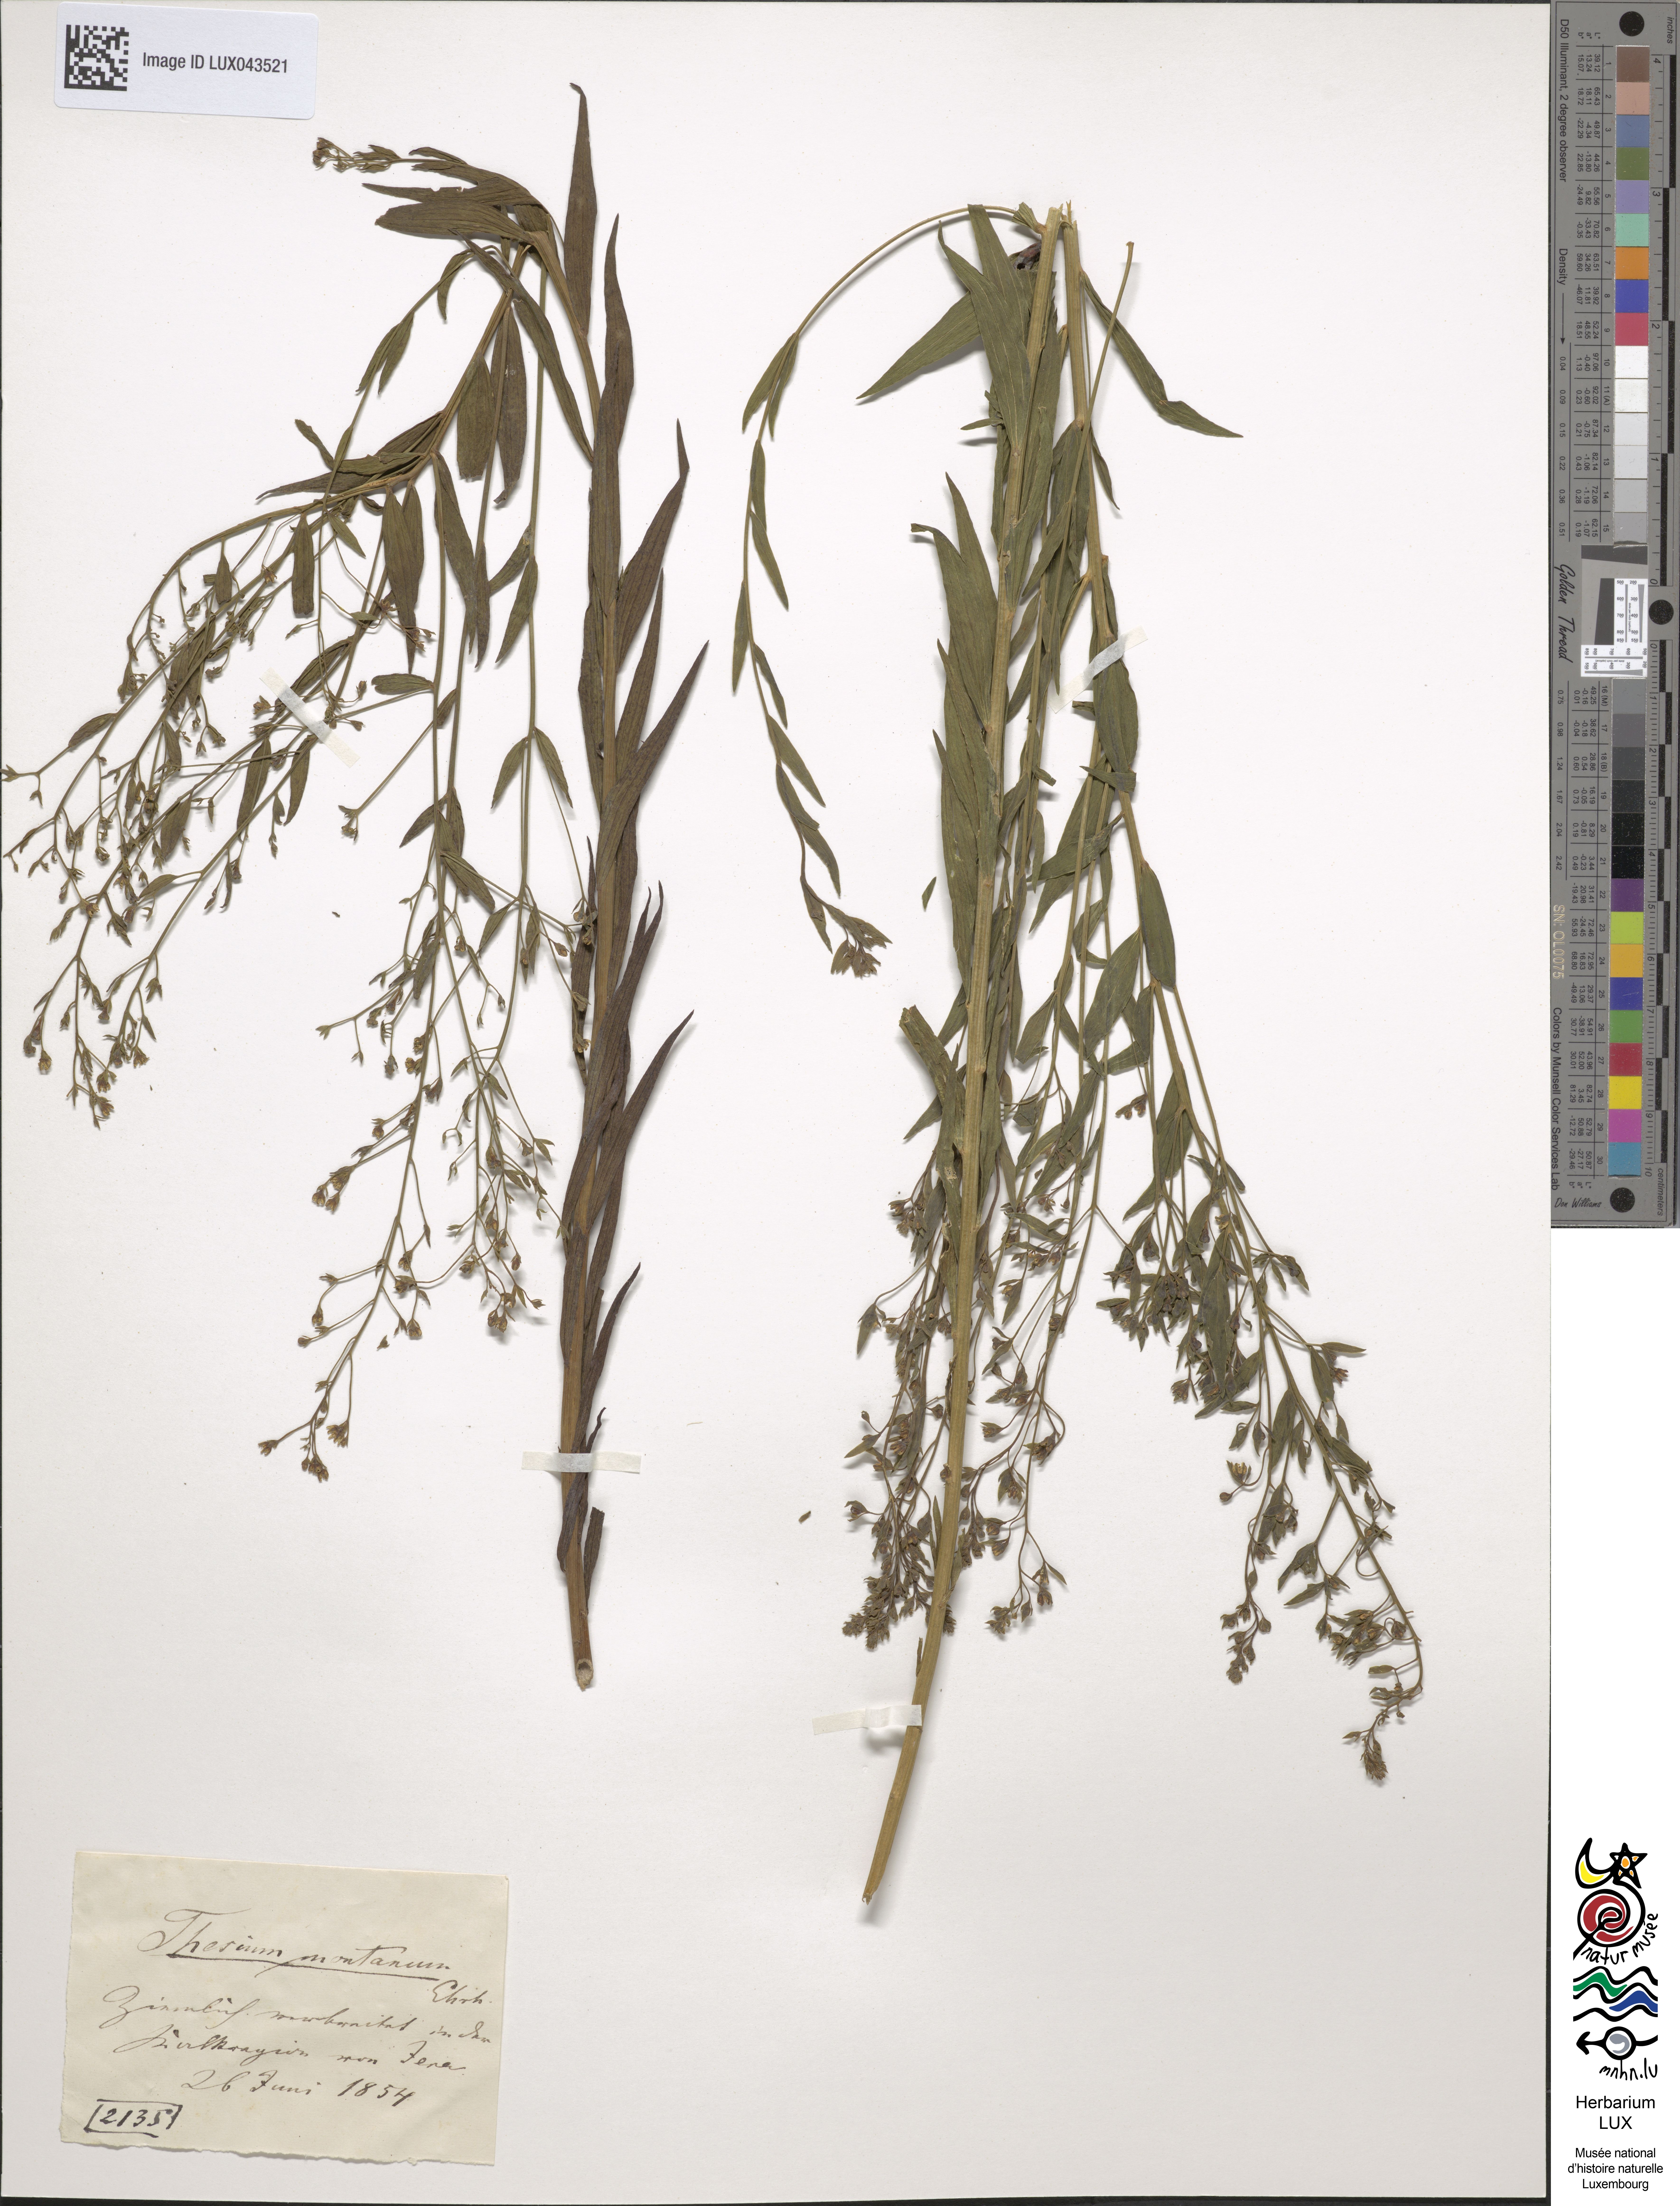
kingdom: Plantae
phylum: Tracheophyta
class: Magnoliopsida
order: Santalales
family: Thesiaceae
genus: Thesium
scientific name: Thesium bavarum
